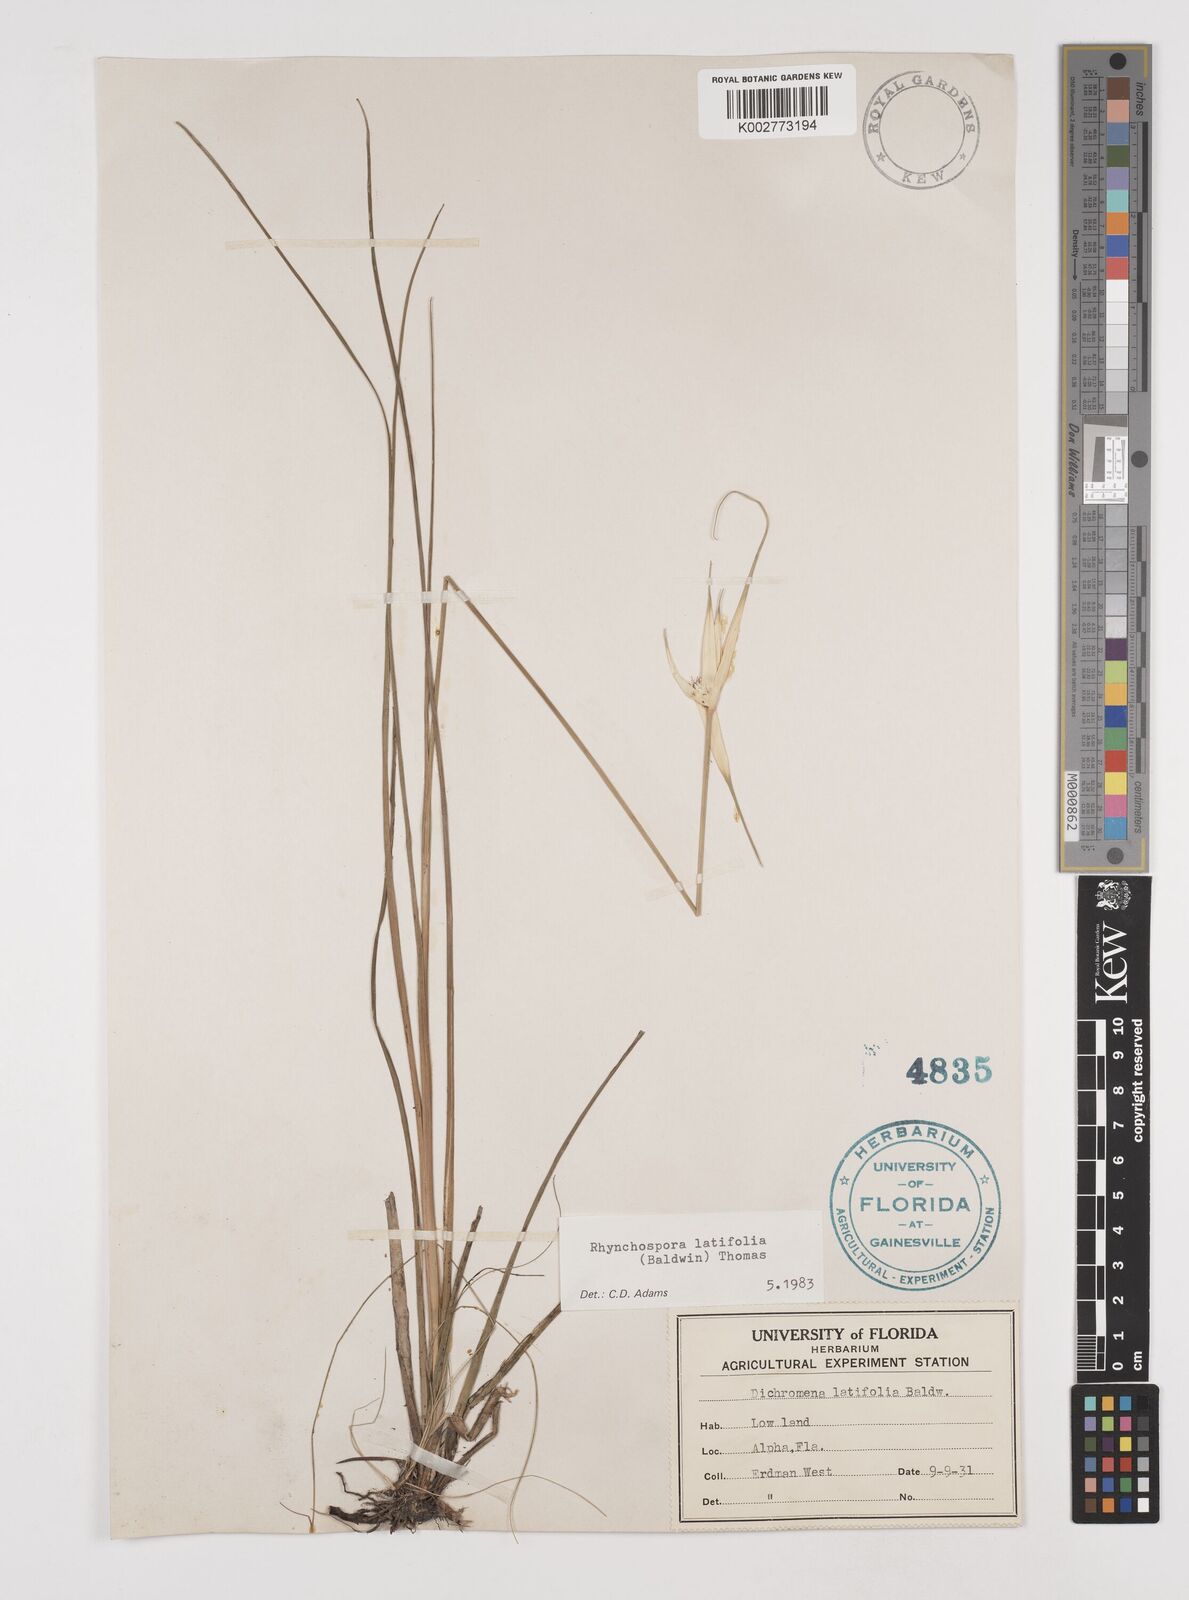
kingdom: Plantae
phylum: Tracheophyta
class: Liliopsida
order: Poales
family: Cyperaceae
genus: Rhynchospora
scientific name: Rhynchospora latifolia
